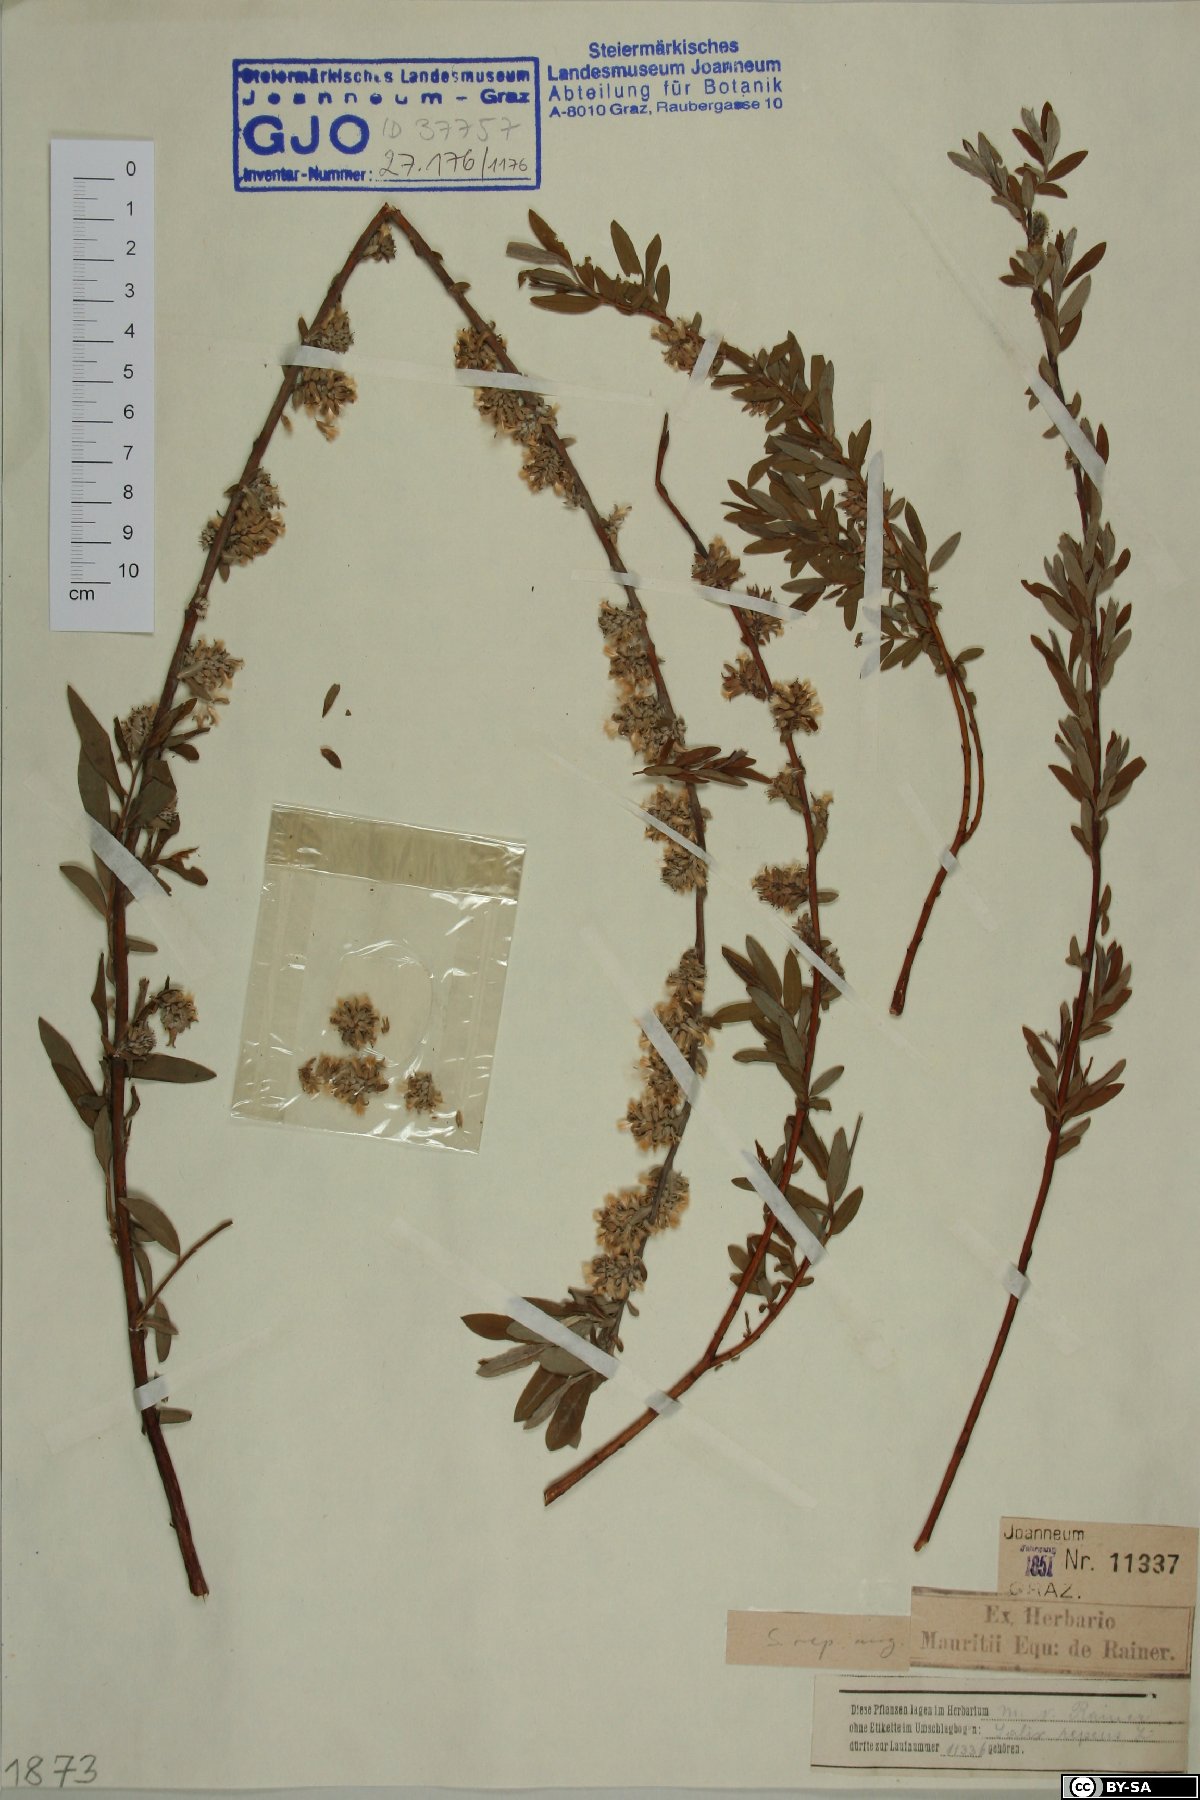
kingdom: Plantae
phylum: Tracheophyta
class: Magnoliopsida
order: Malpighiales
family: Salicaceae
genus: Salix
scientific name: Salix rosmarinifolia
